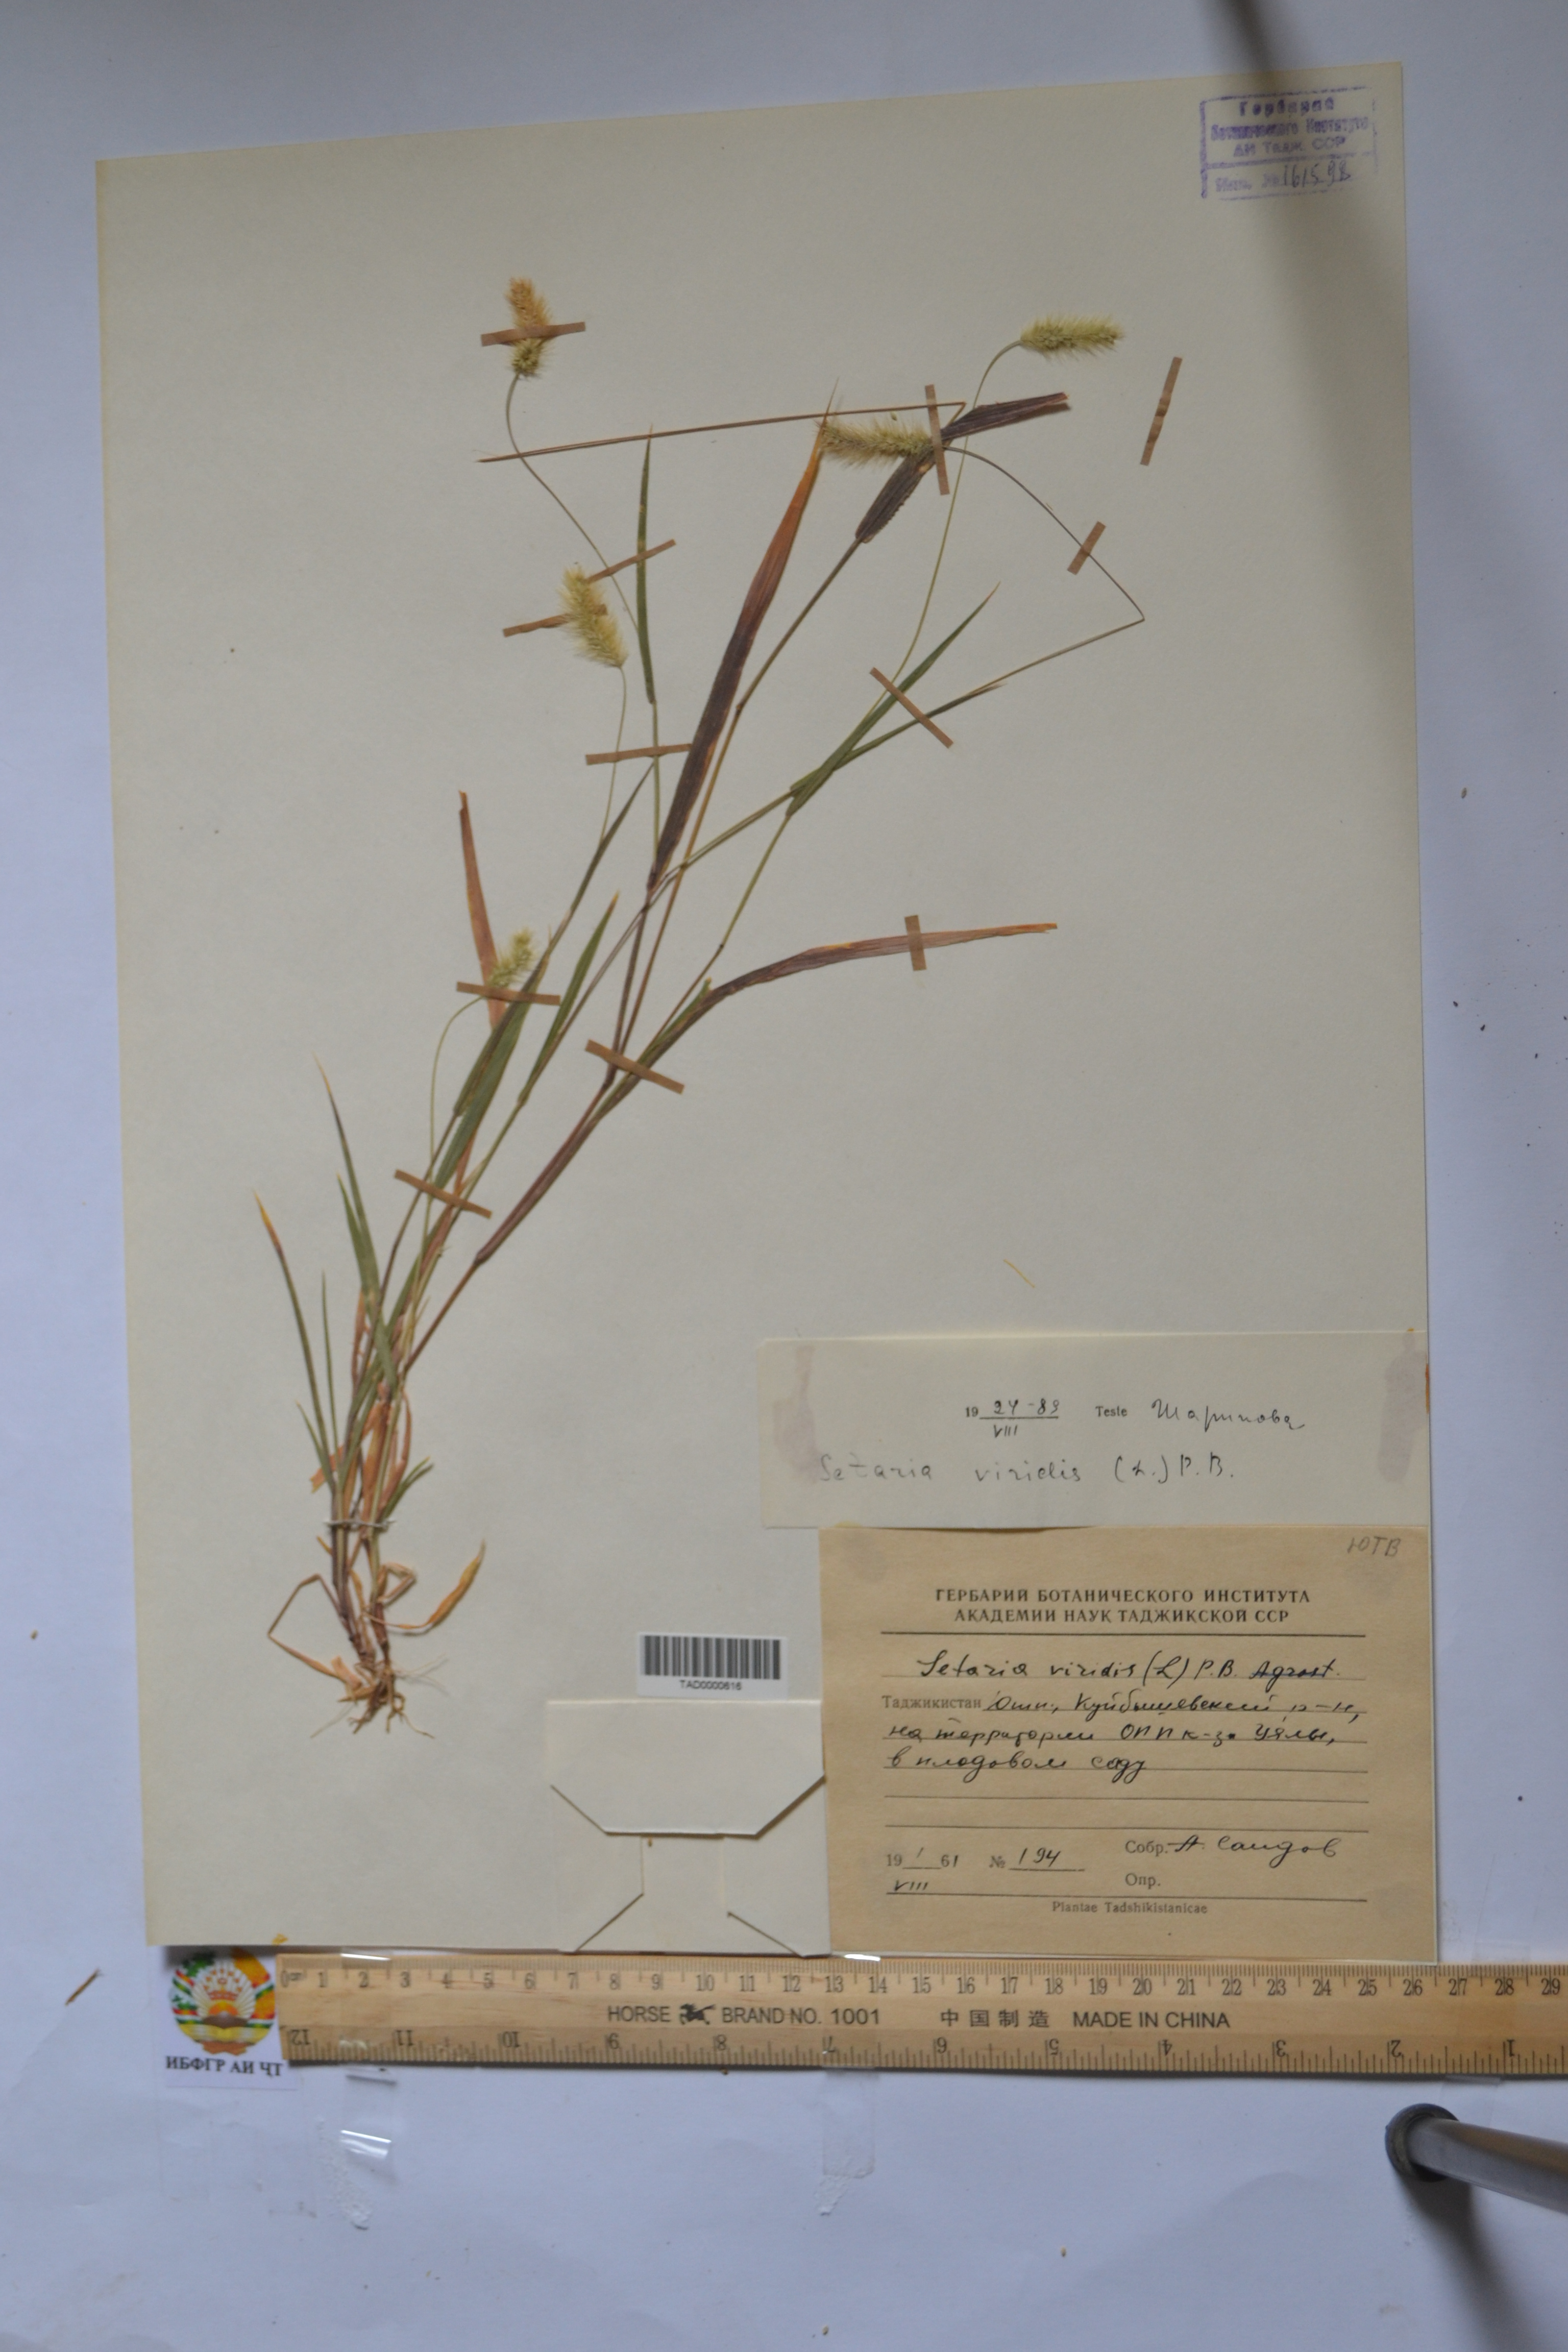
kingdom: Plantae
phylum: Tracheophyta
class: Liliopsida
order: Poales
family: Poaceae
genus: Setaria
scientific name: Setaria viridis
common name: Green bristlegrass
